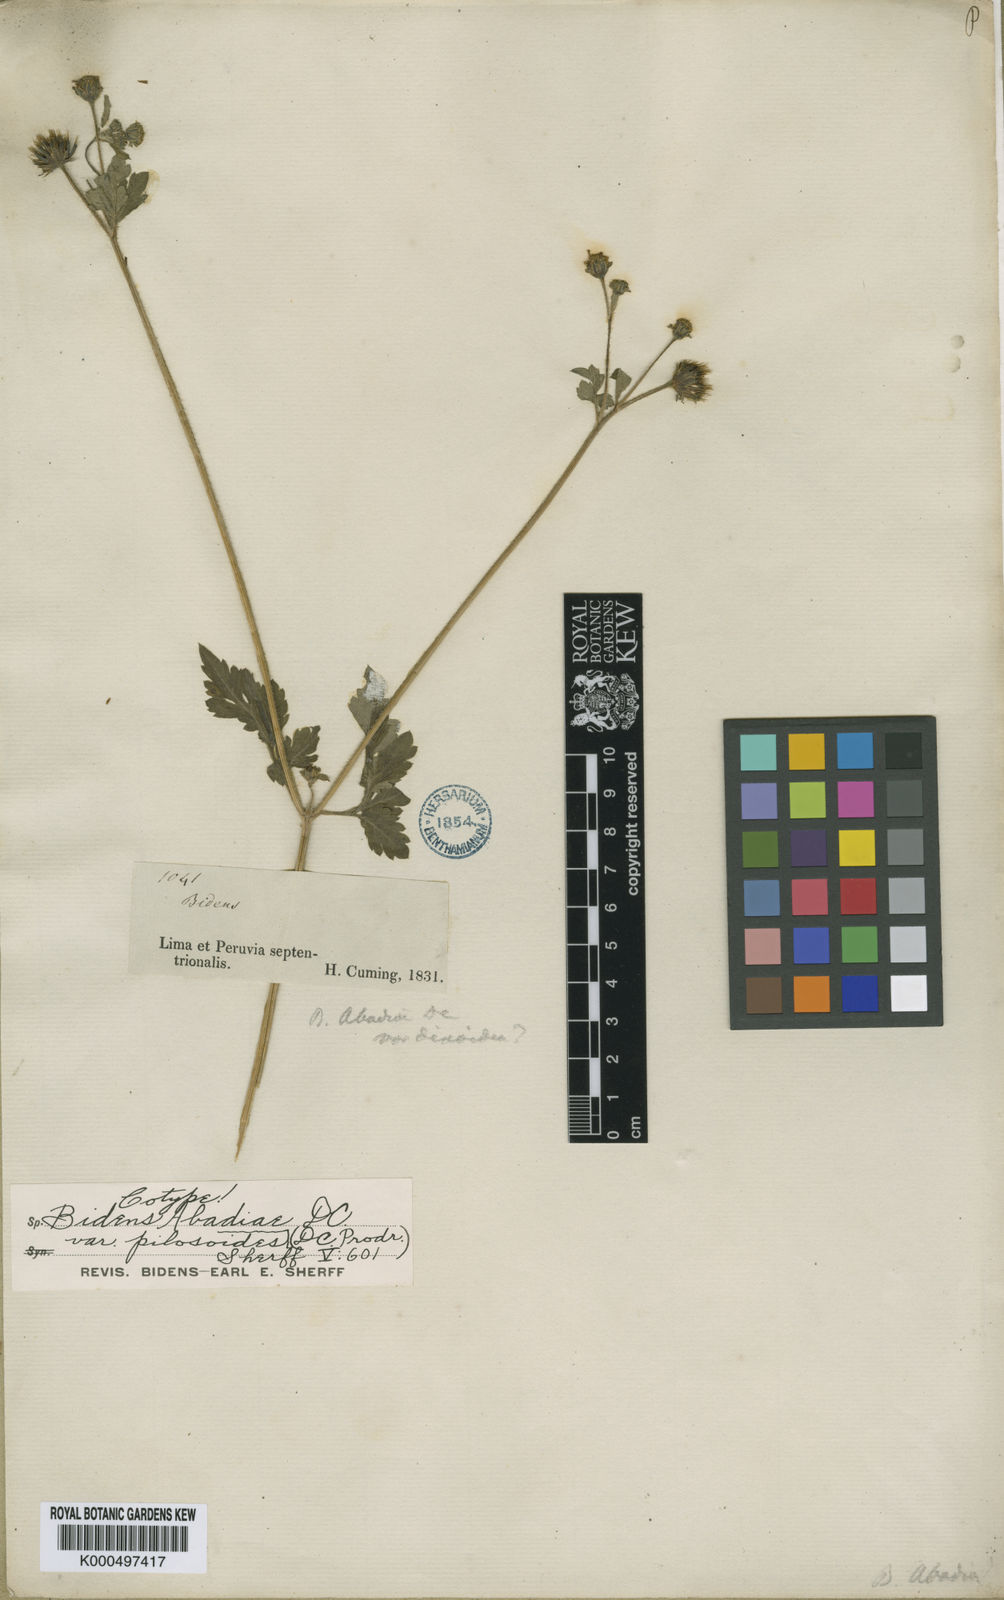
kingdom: Plantae
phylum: Tracheophyta
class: Magnoliopsida
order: Asterales
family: Asteraceae
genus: Bidens
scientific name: Bidens pilosa
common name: Black-jack
